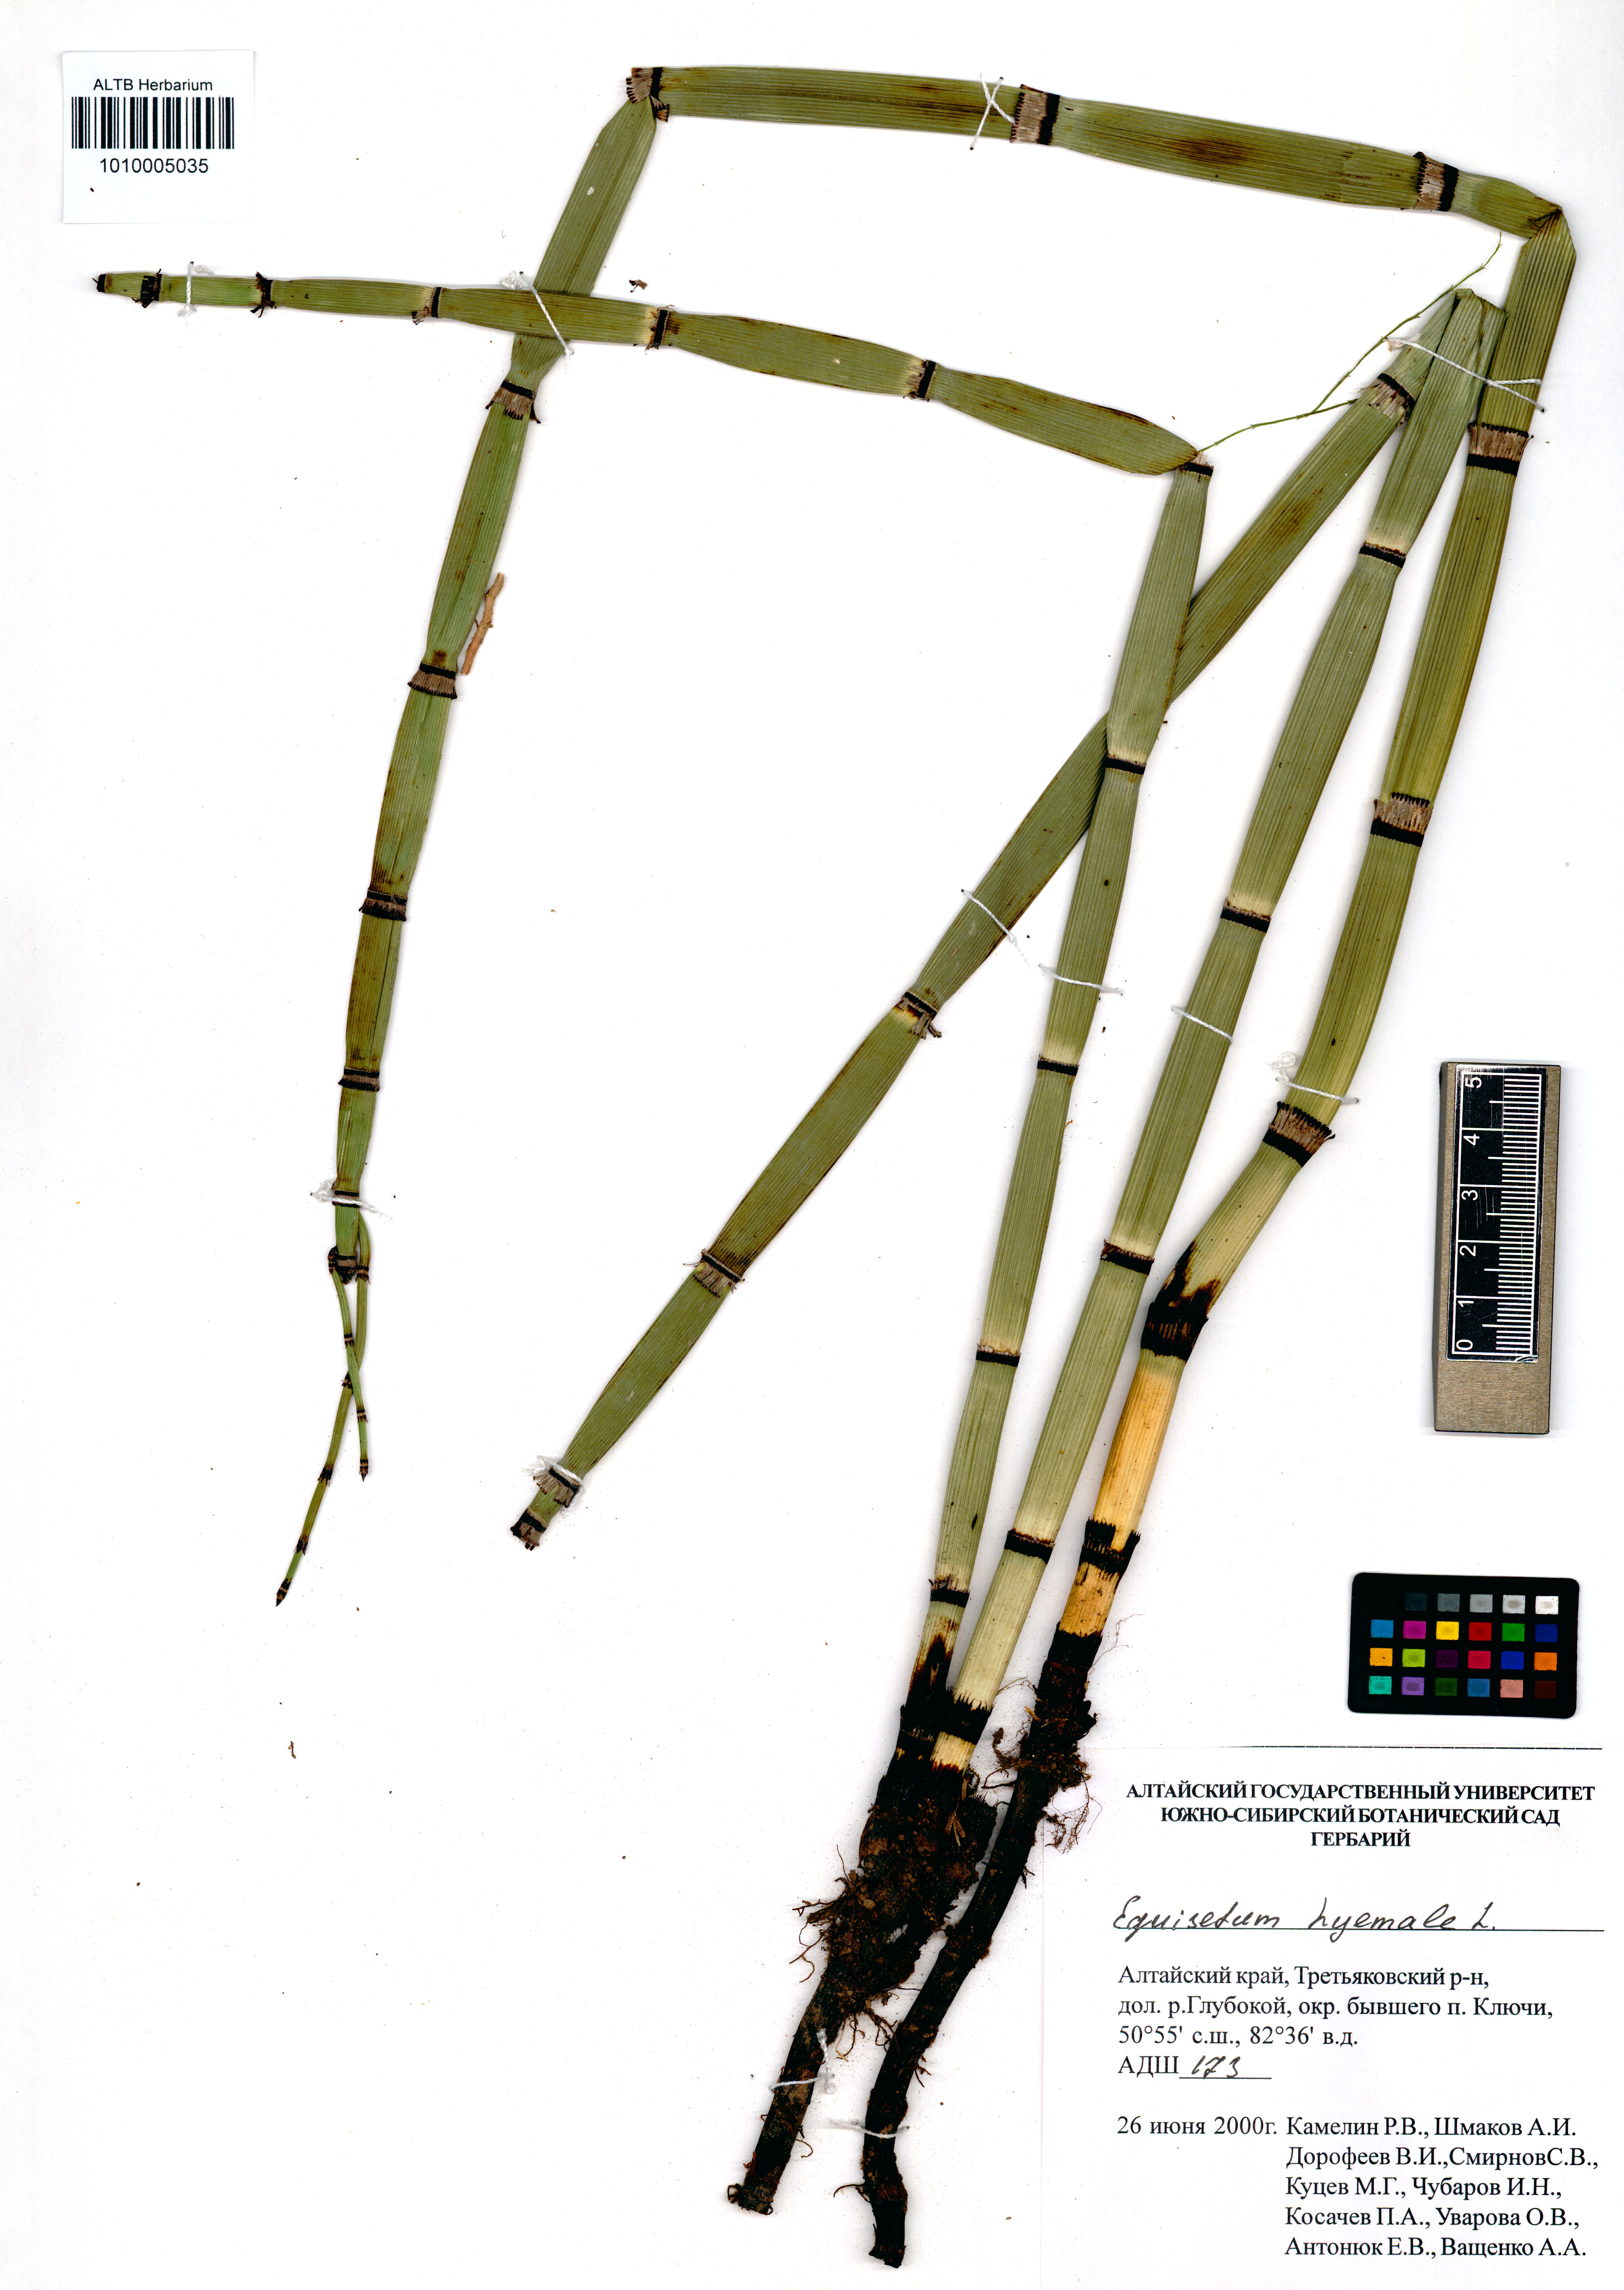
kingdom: Plantae
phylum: Tracheophyta
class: Polypodiopsida
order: Equisetales
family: Equisetaceae
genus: Equisetum
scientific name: Equisetum hyemale
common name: Rough horsetail
